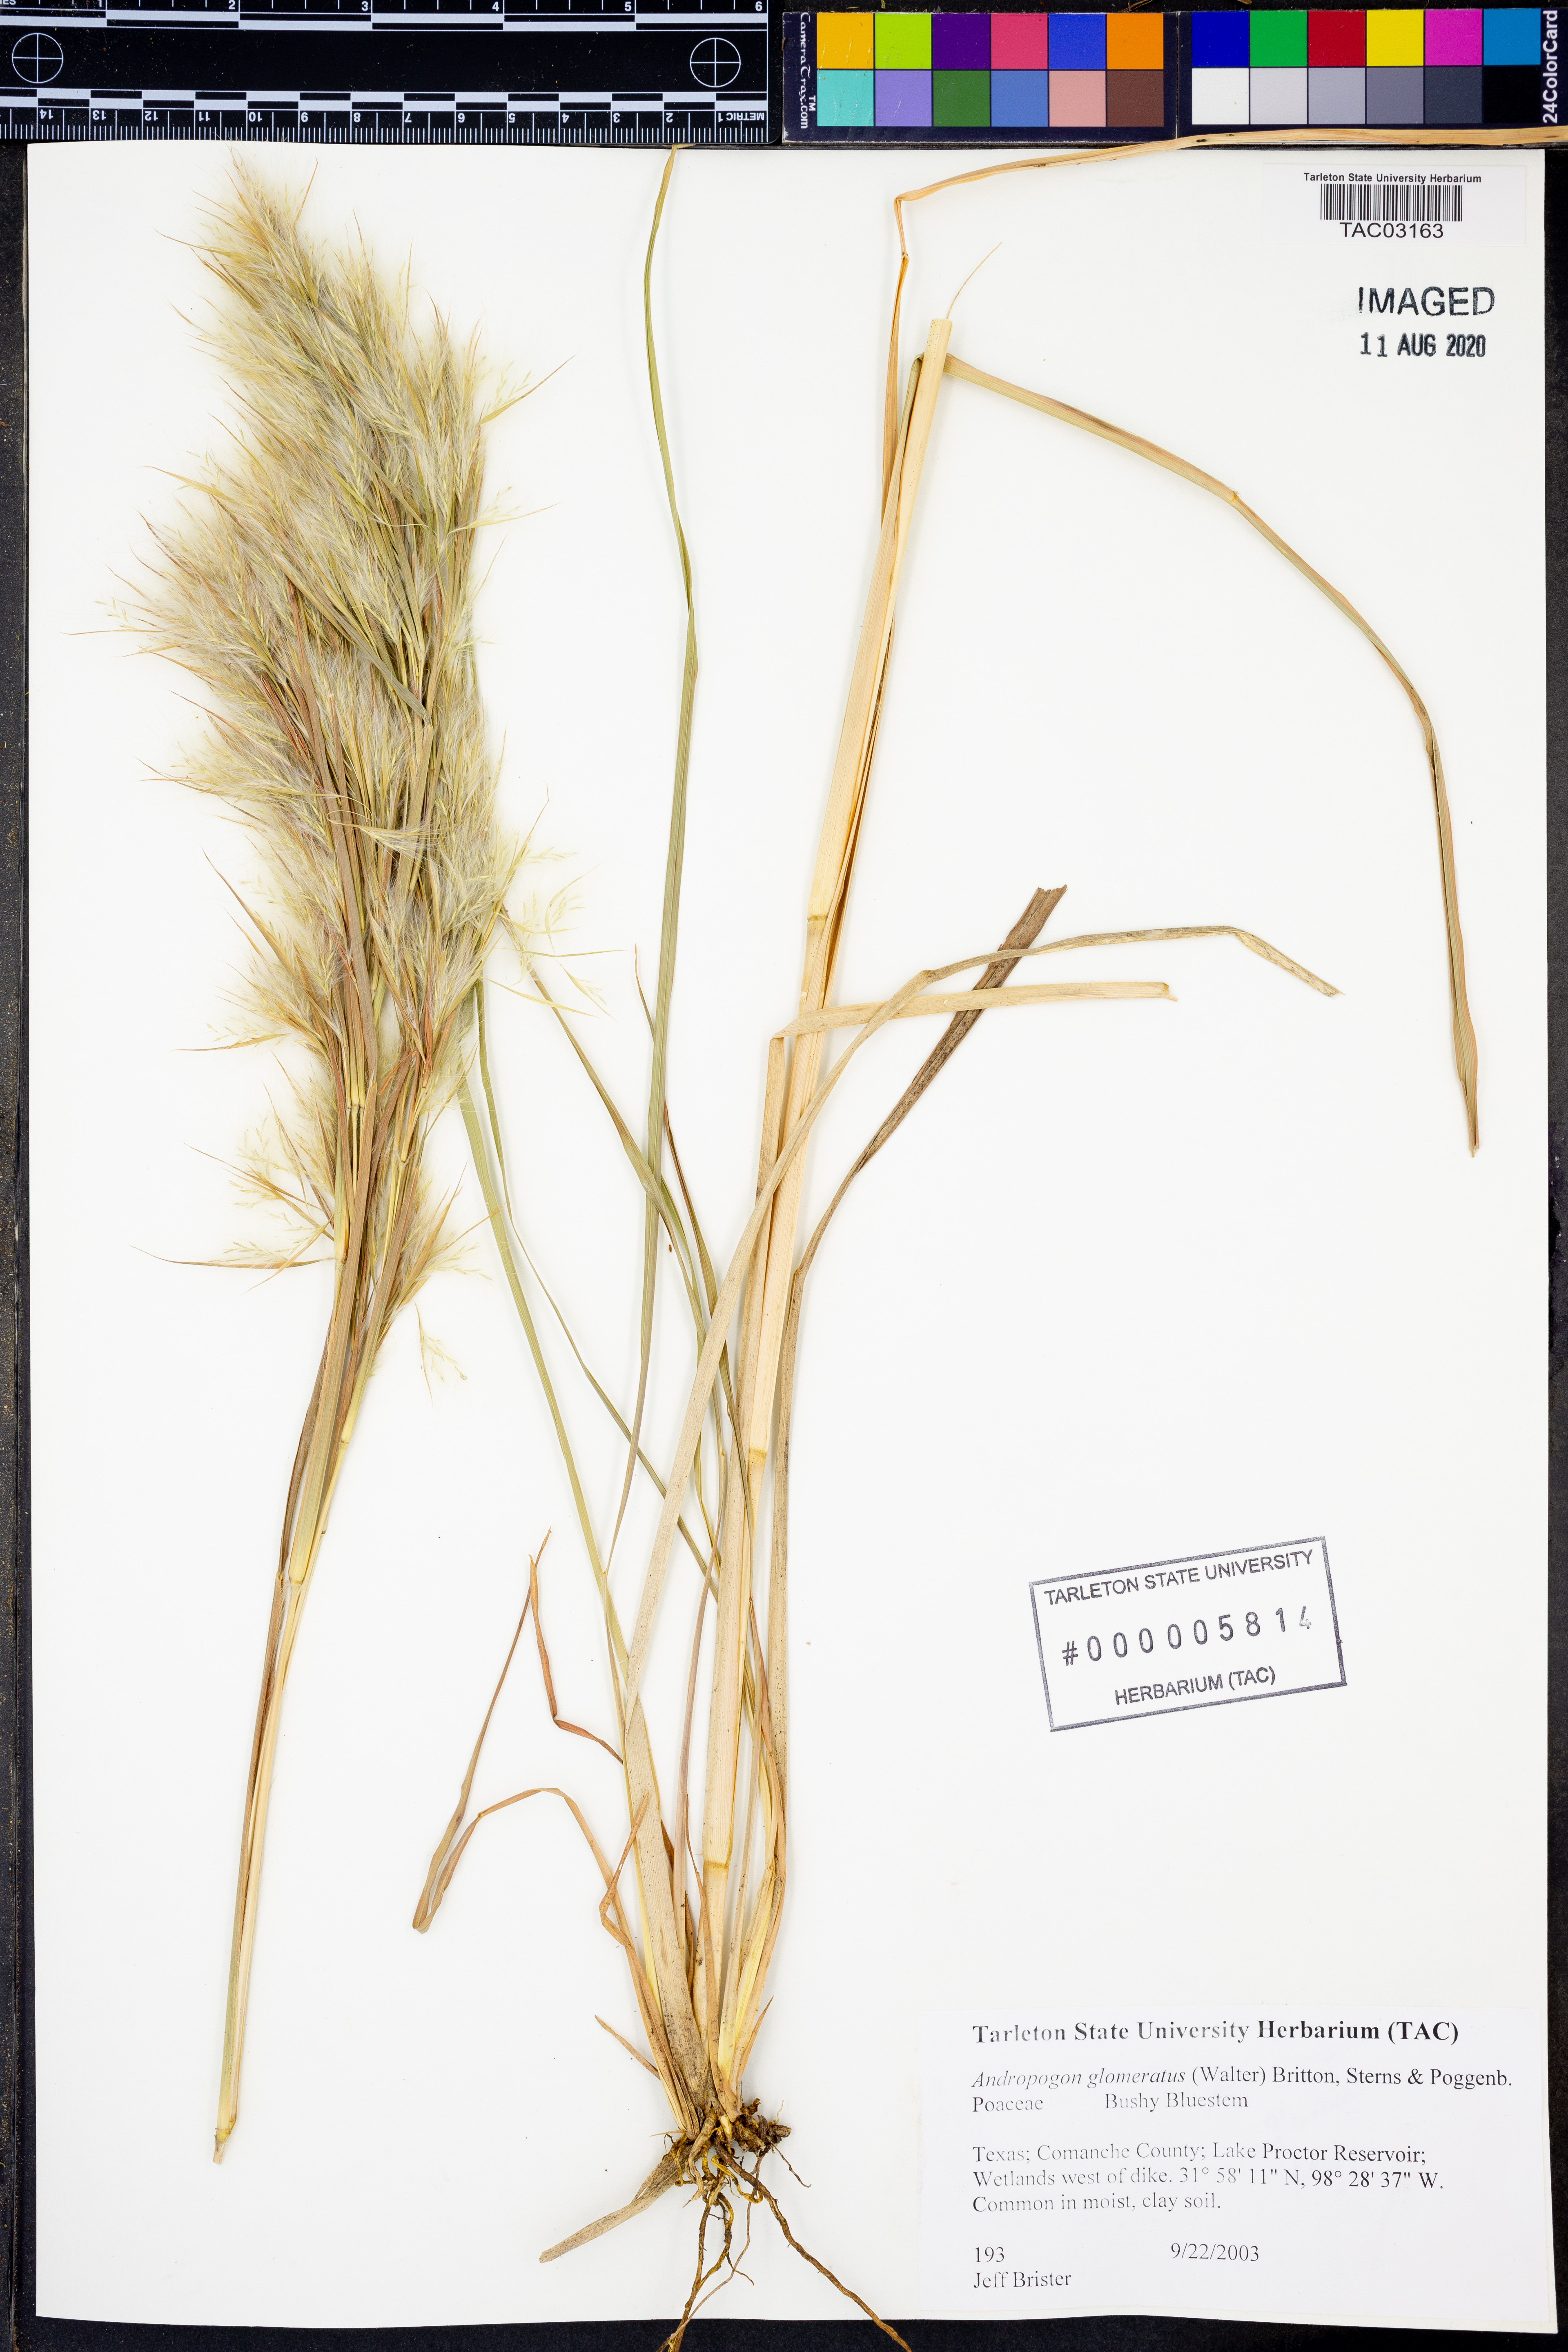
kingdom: Plantae
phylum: Tracheophyta
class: Liliopsida
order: Poales
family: Poaceae
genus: Andropogon
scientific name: Andropogon glomeratus
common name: Bushy beard grass
